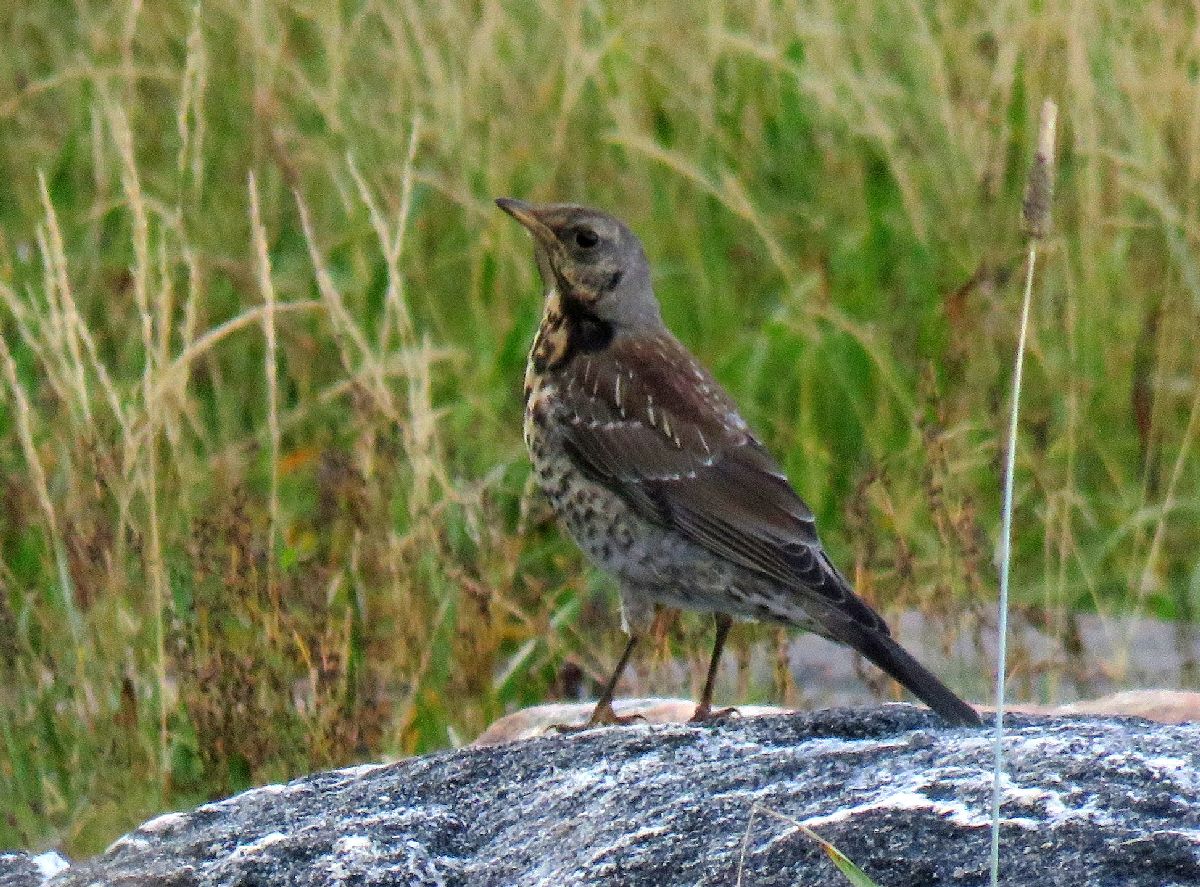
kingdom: Animalia
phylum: Chordata
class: Aves
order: Passeriformes
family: Turdidae
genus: Turdus
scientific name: Turdus pilaris
